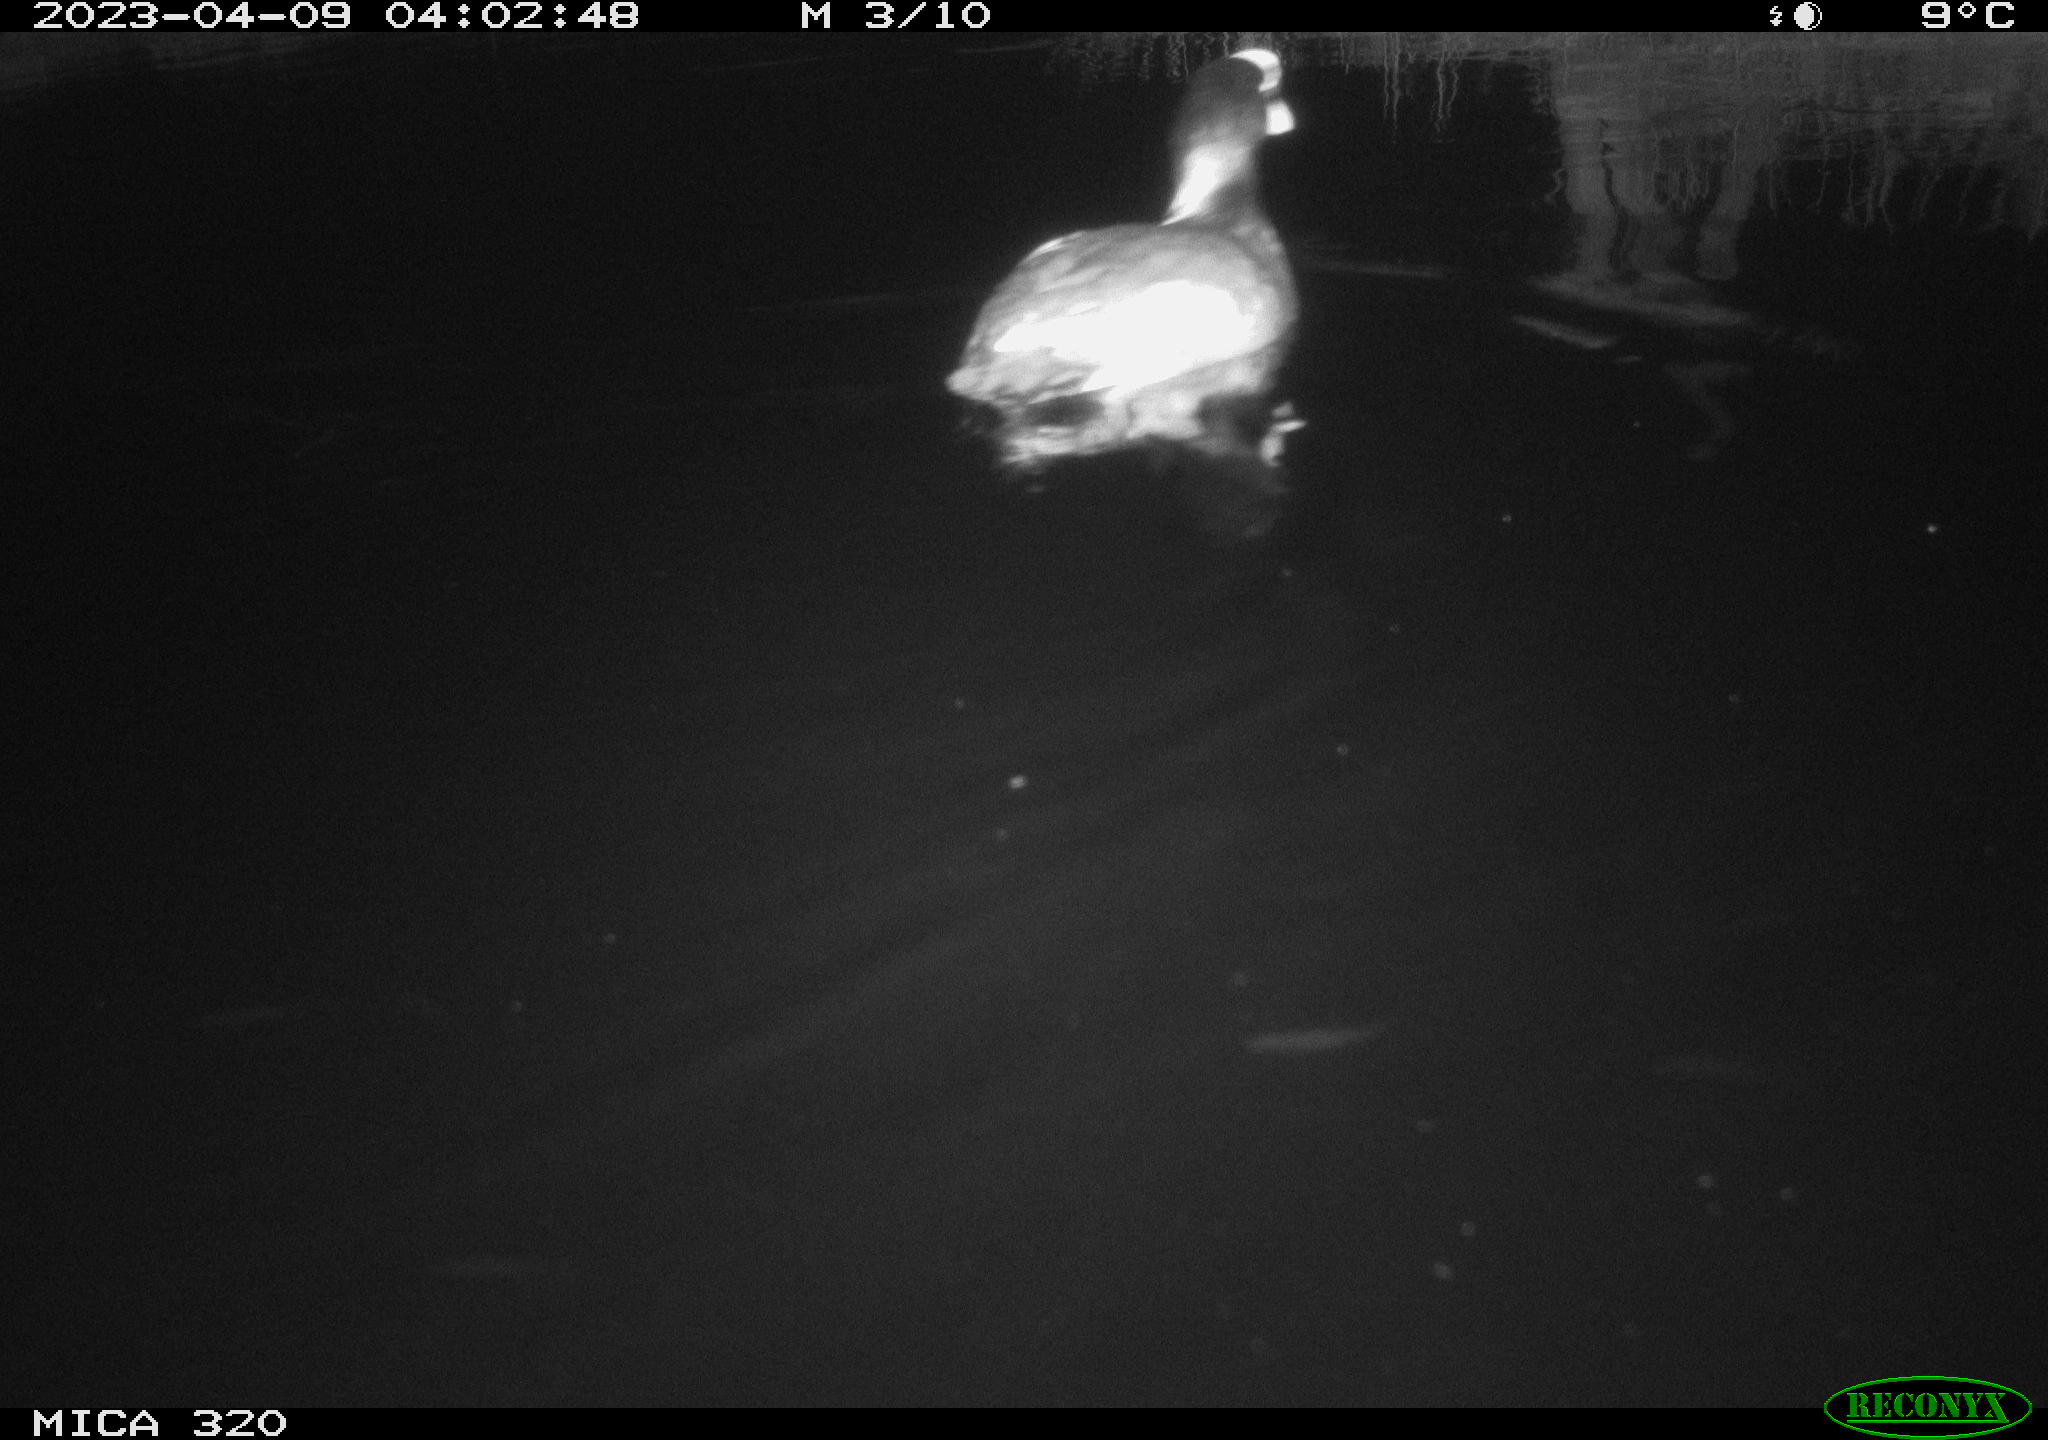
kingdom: Animalia
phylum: Chordata
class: Aves
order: Anseriformes
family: Anatidae
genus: Anas
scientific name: Anas
